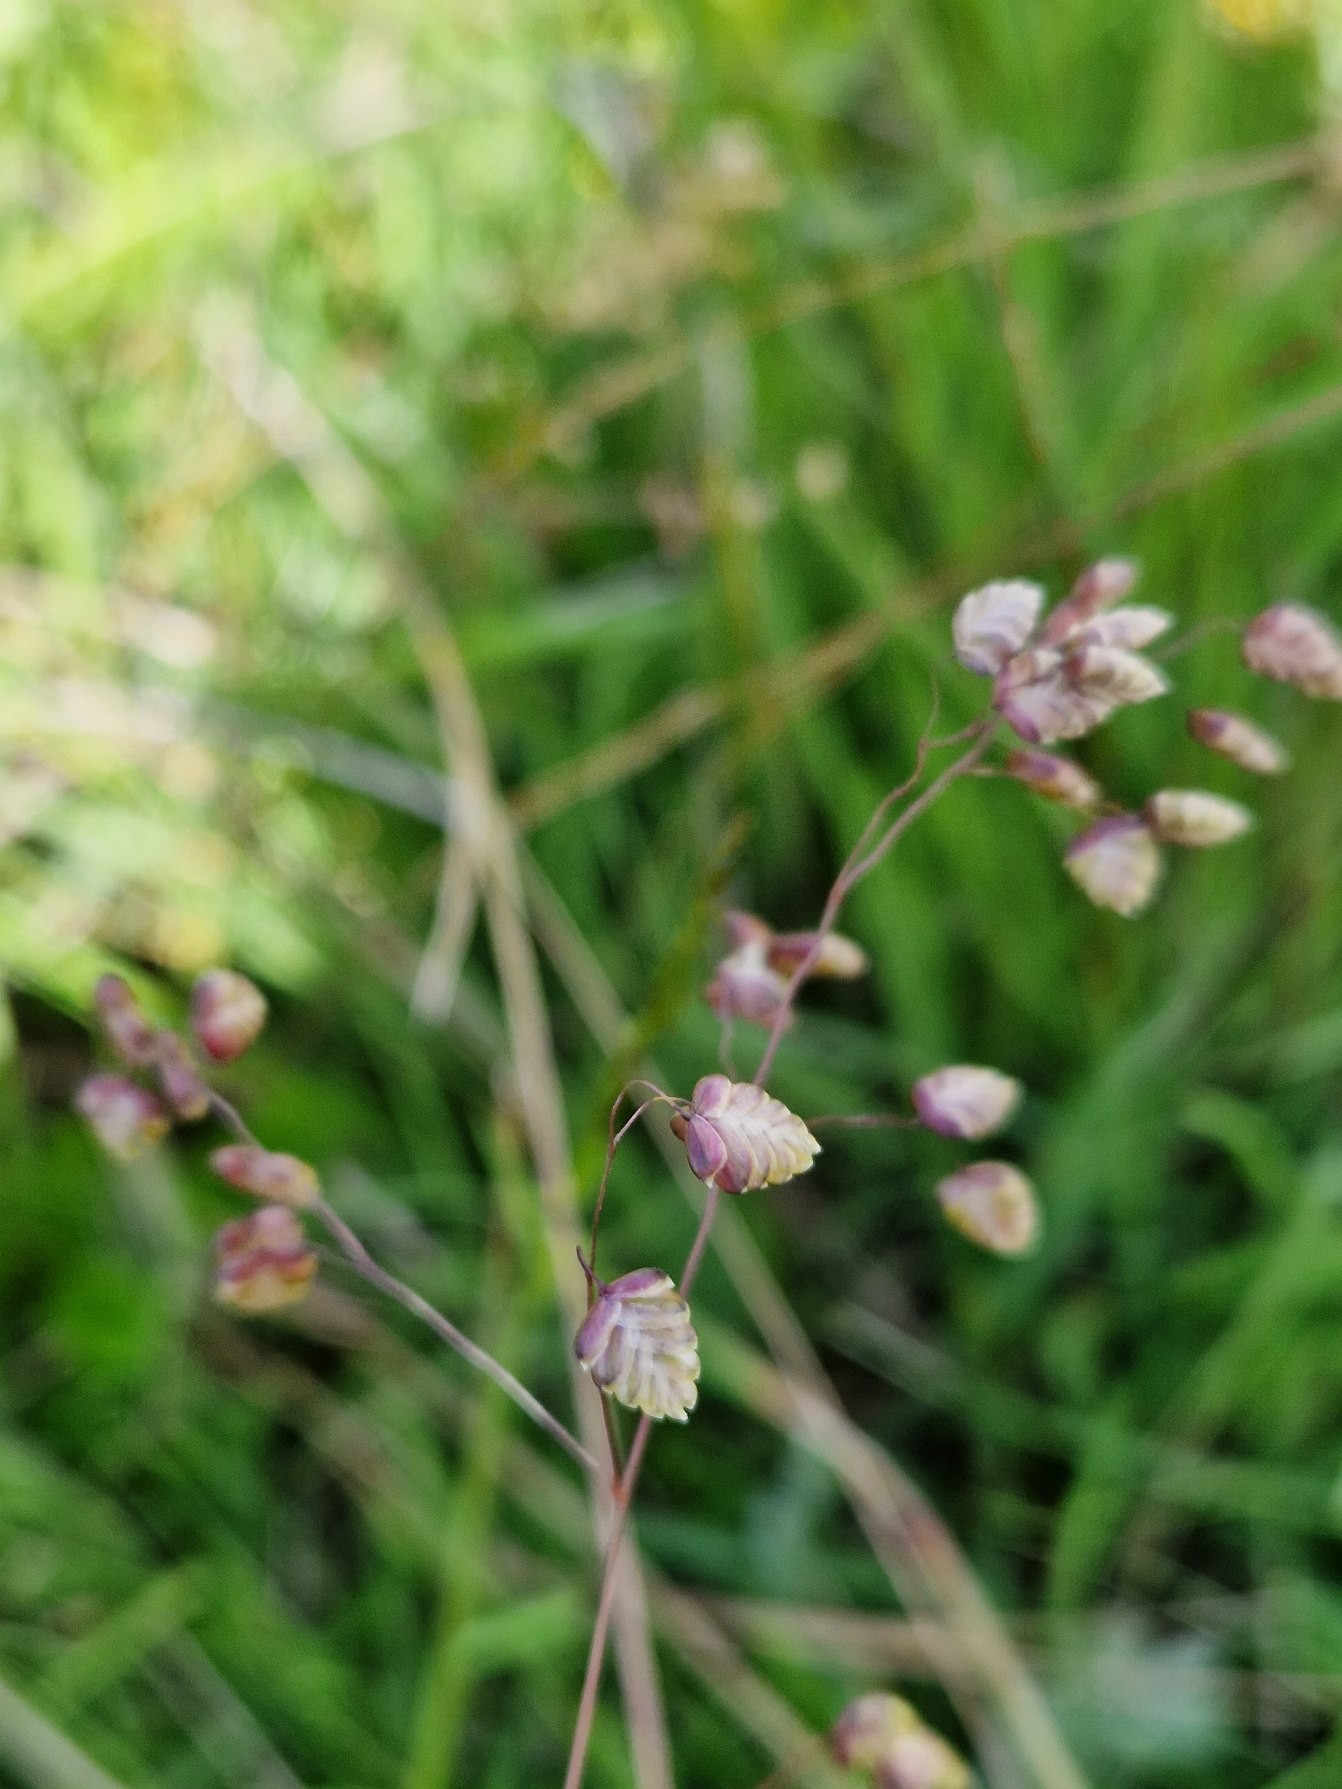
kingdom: Plantae
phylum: Tracheophyta
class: Liliopsida
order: Poales
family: Poaceae
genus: Briza
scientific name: Briza media
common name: Hjertegræs
